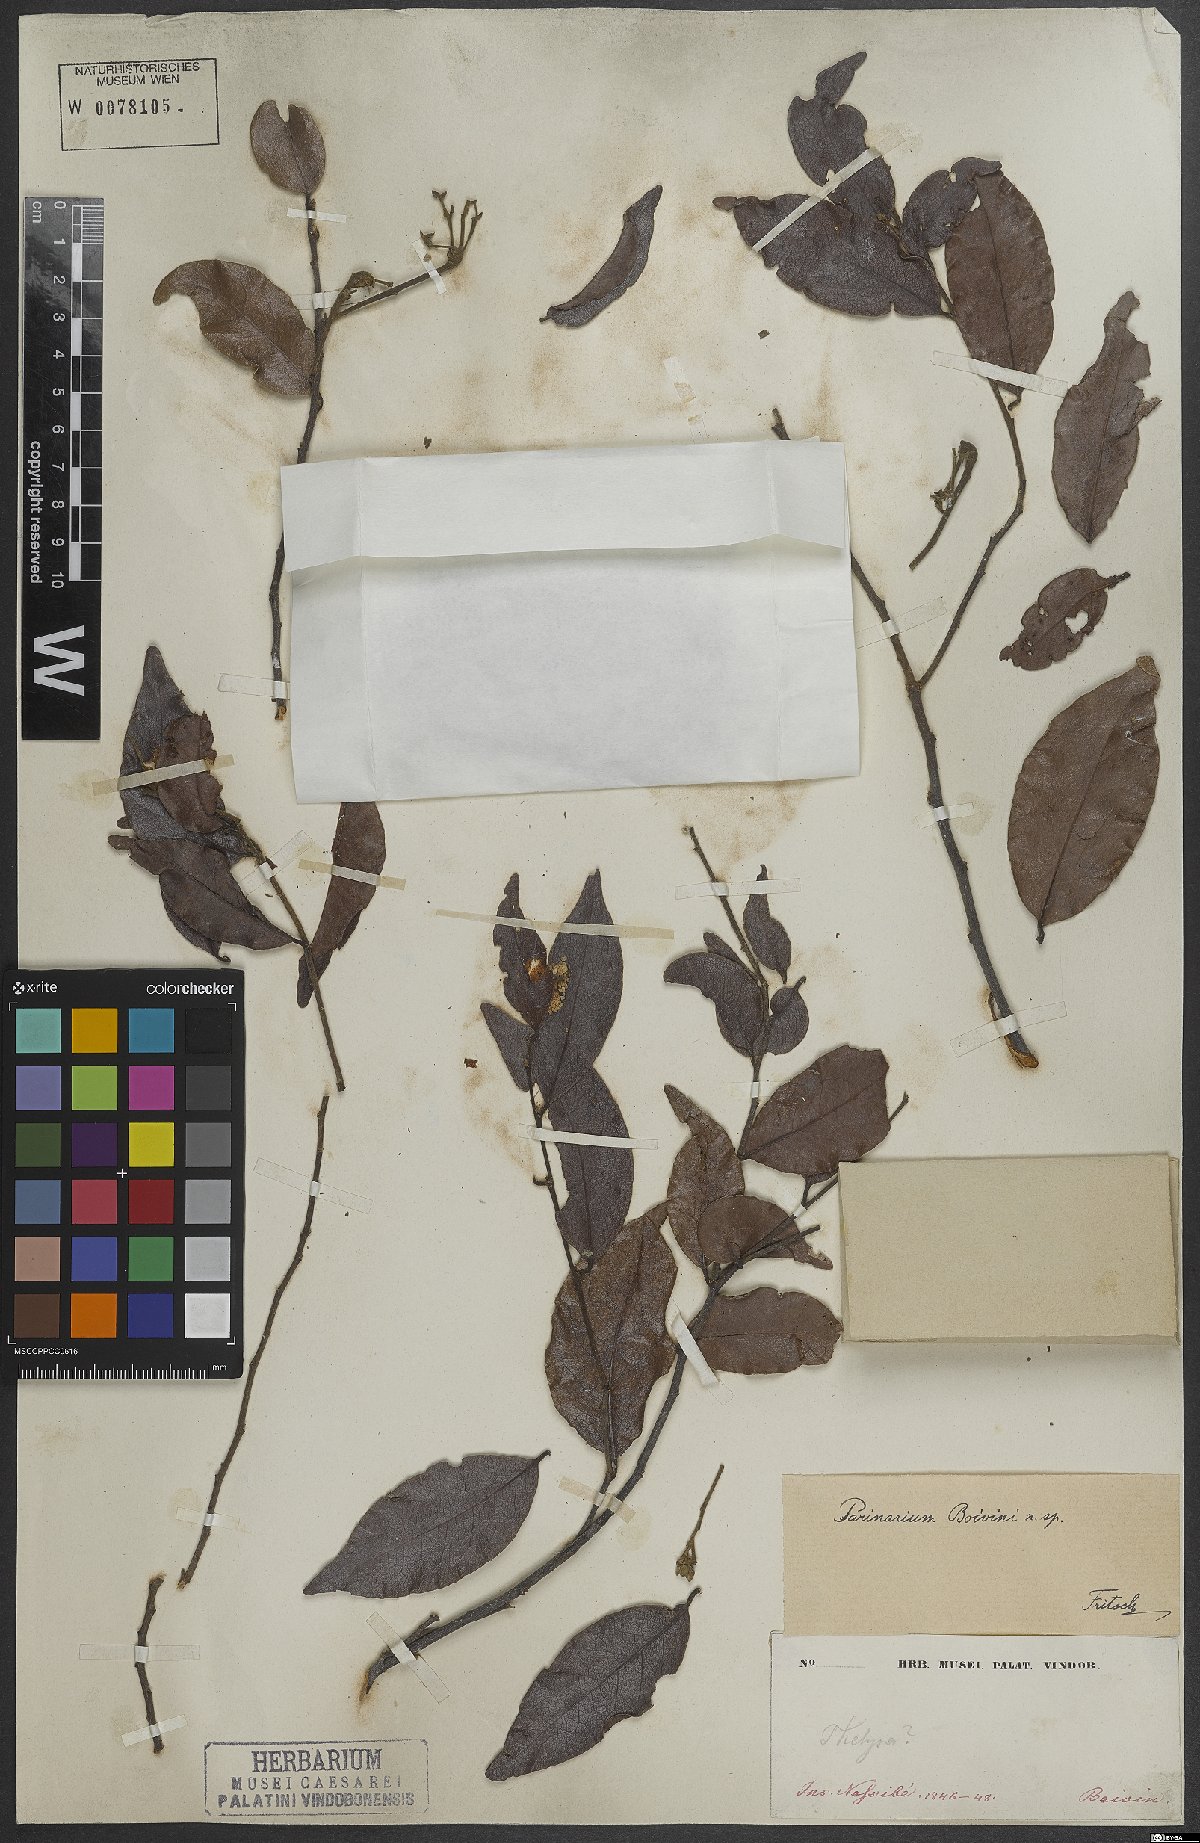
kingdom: Plantae
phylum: Tracheophyta
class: Magnoliopsida
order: Malpighiales
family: Chrysobalanaceae
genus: Hirtella
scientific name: Hirtella thouarsiana
